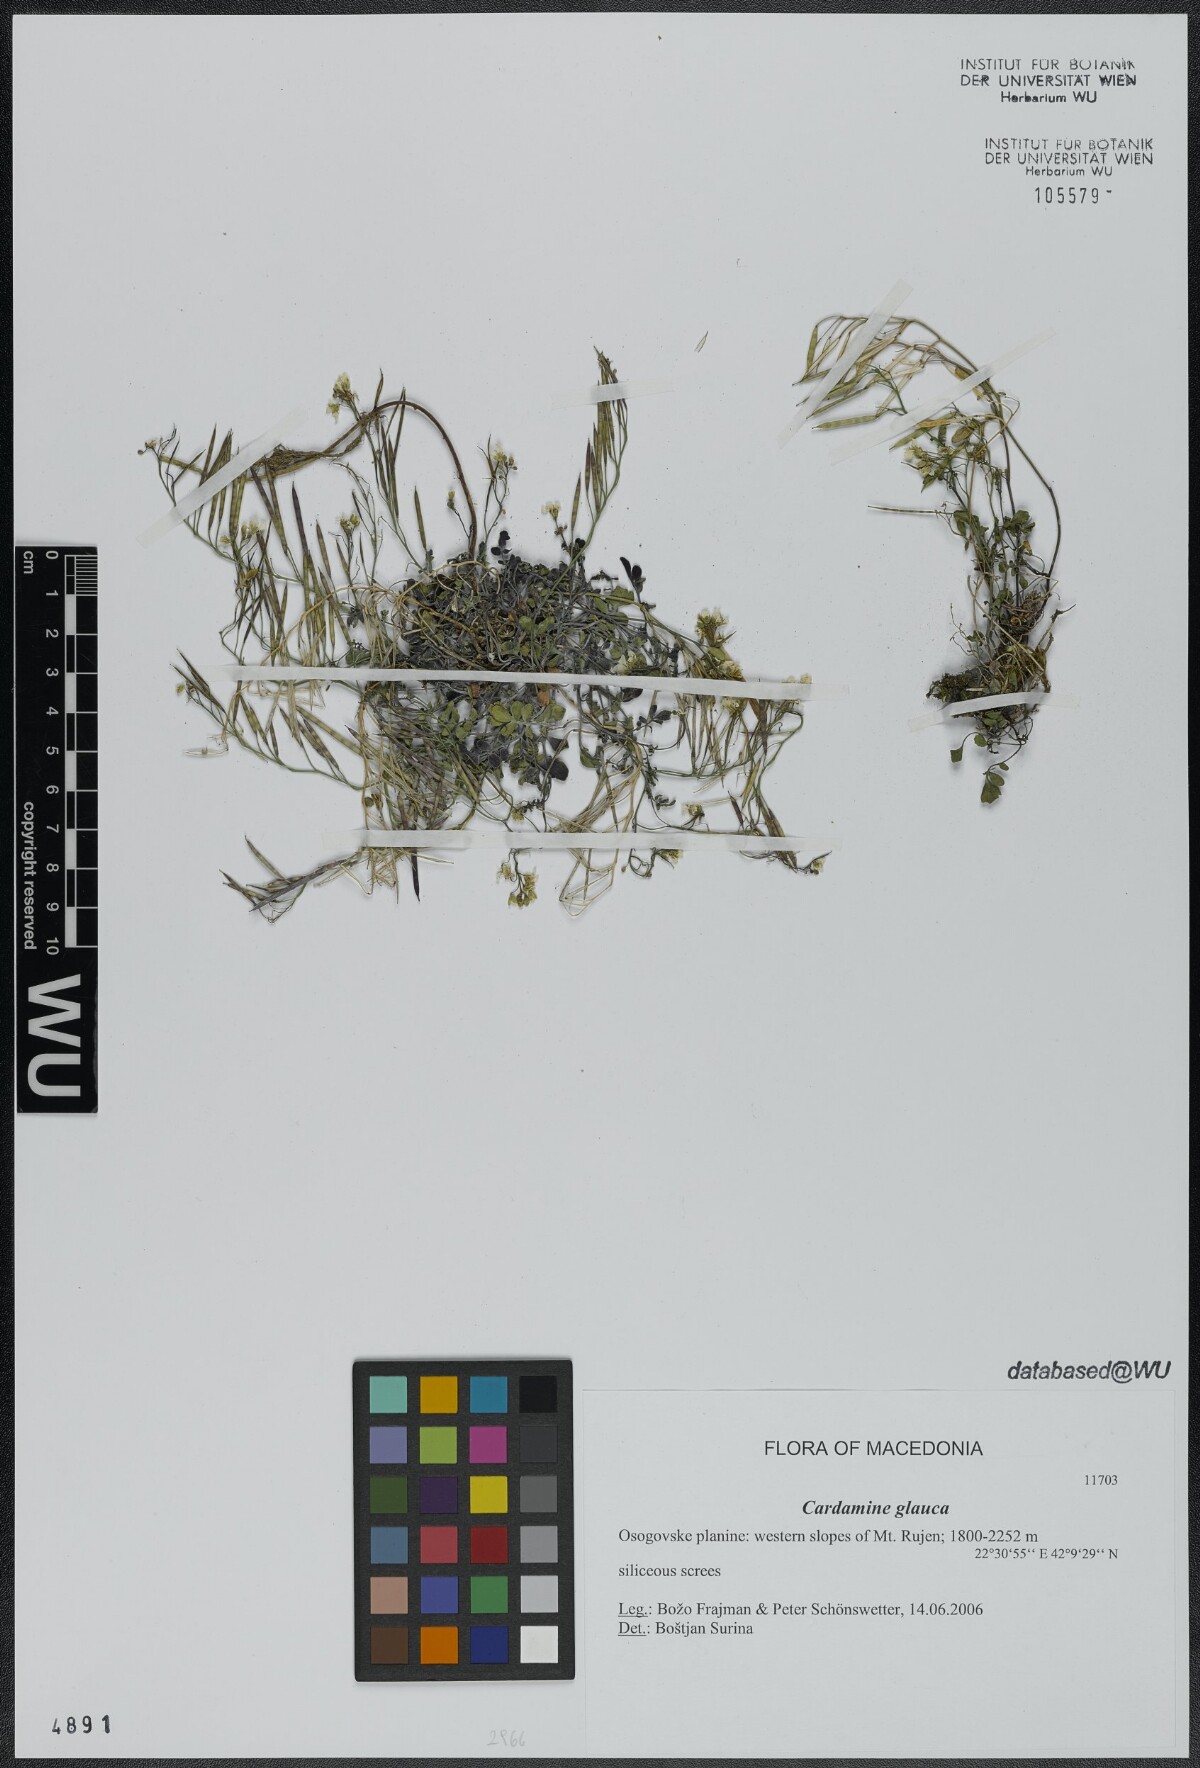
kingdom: Plantae
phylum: Tracheophyta
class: Magnoliopsida
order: Brassicales
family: Brassicaceae
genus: Cardamine
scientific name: Cardamine glauca
